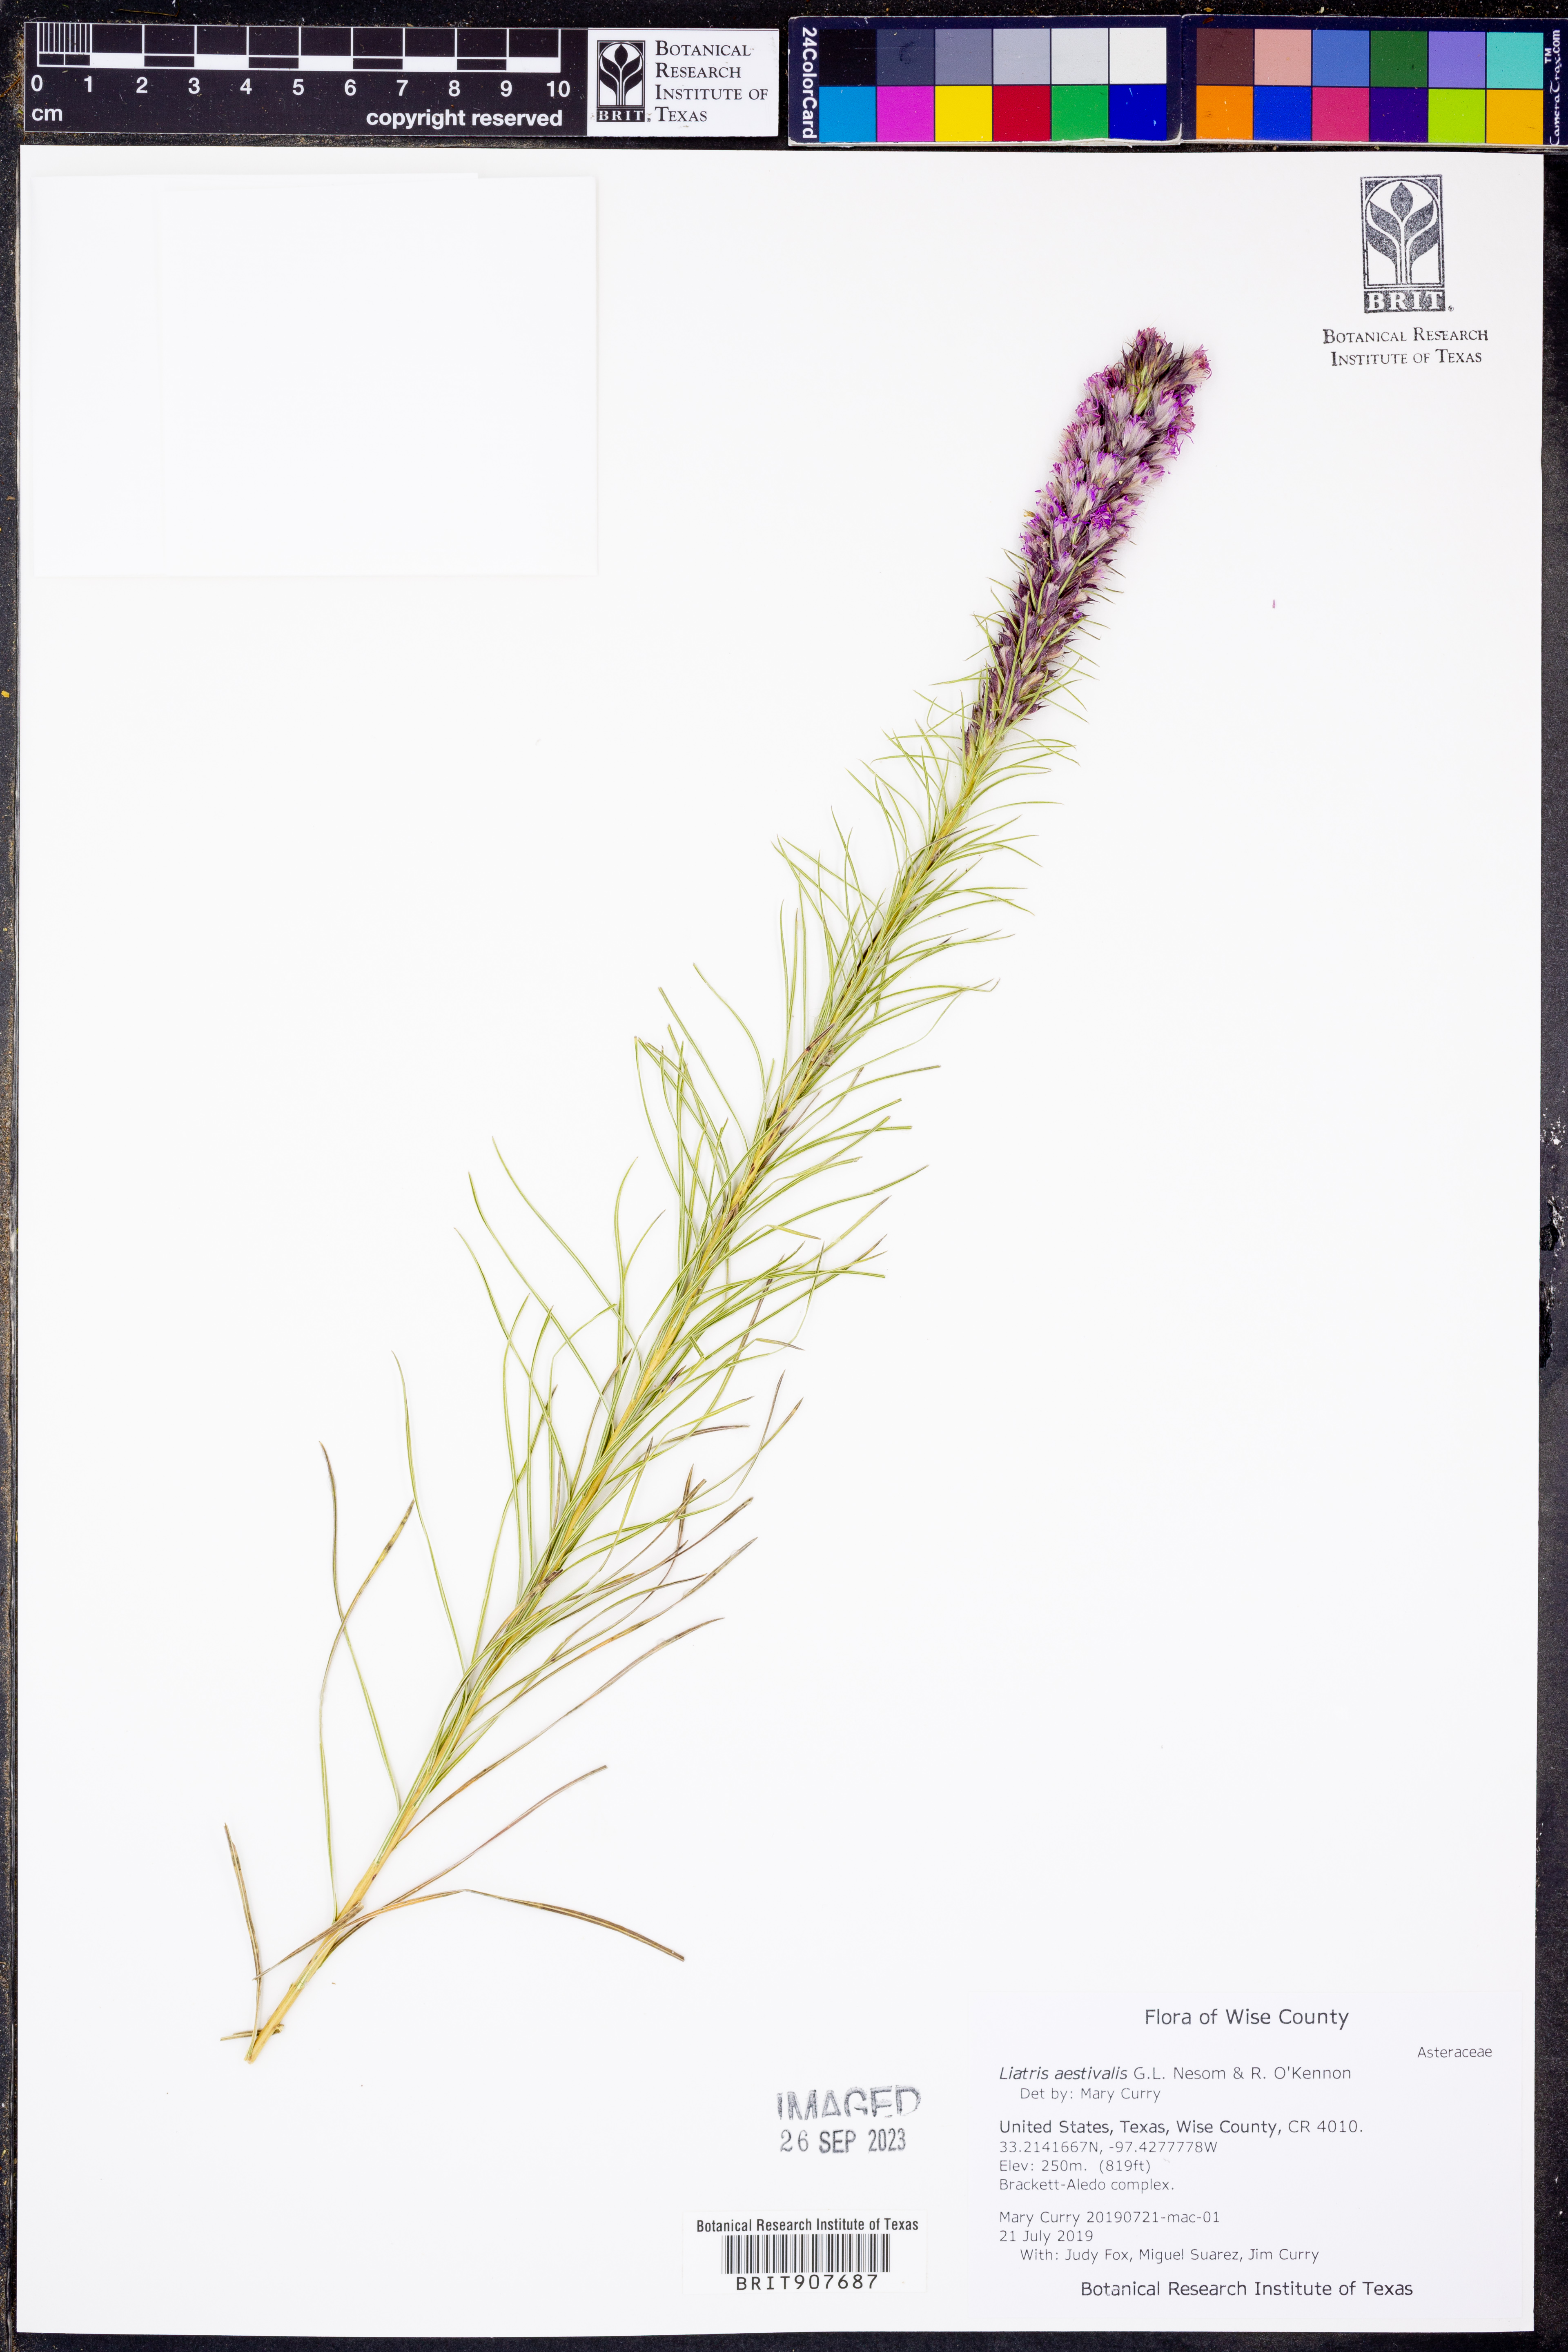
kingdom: Plantae
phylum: Tracheophyta
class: Magnoliopsida
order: Asterales
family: Asteraceae
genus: Liatris
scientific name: Liatris aestivalis
